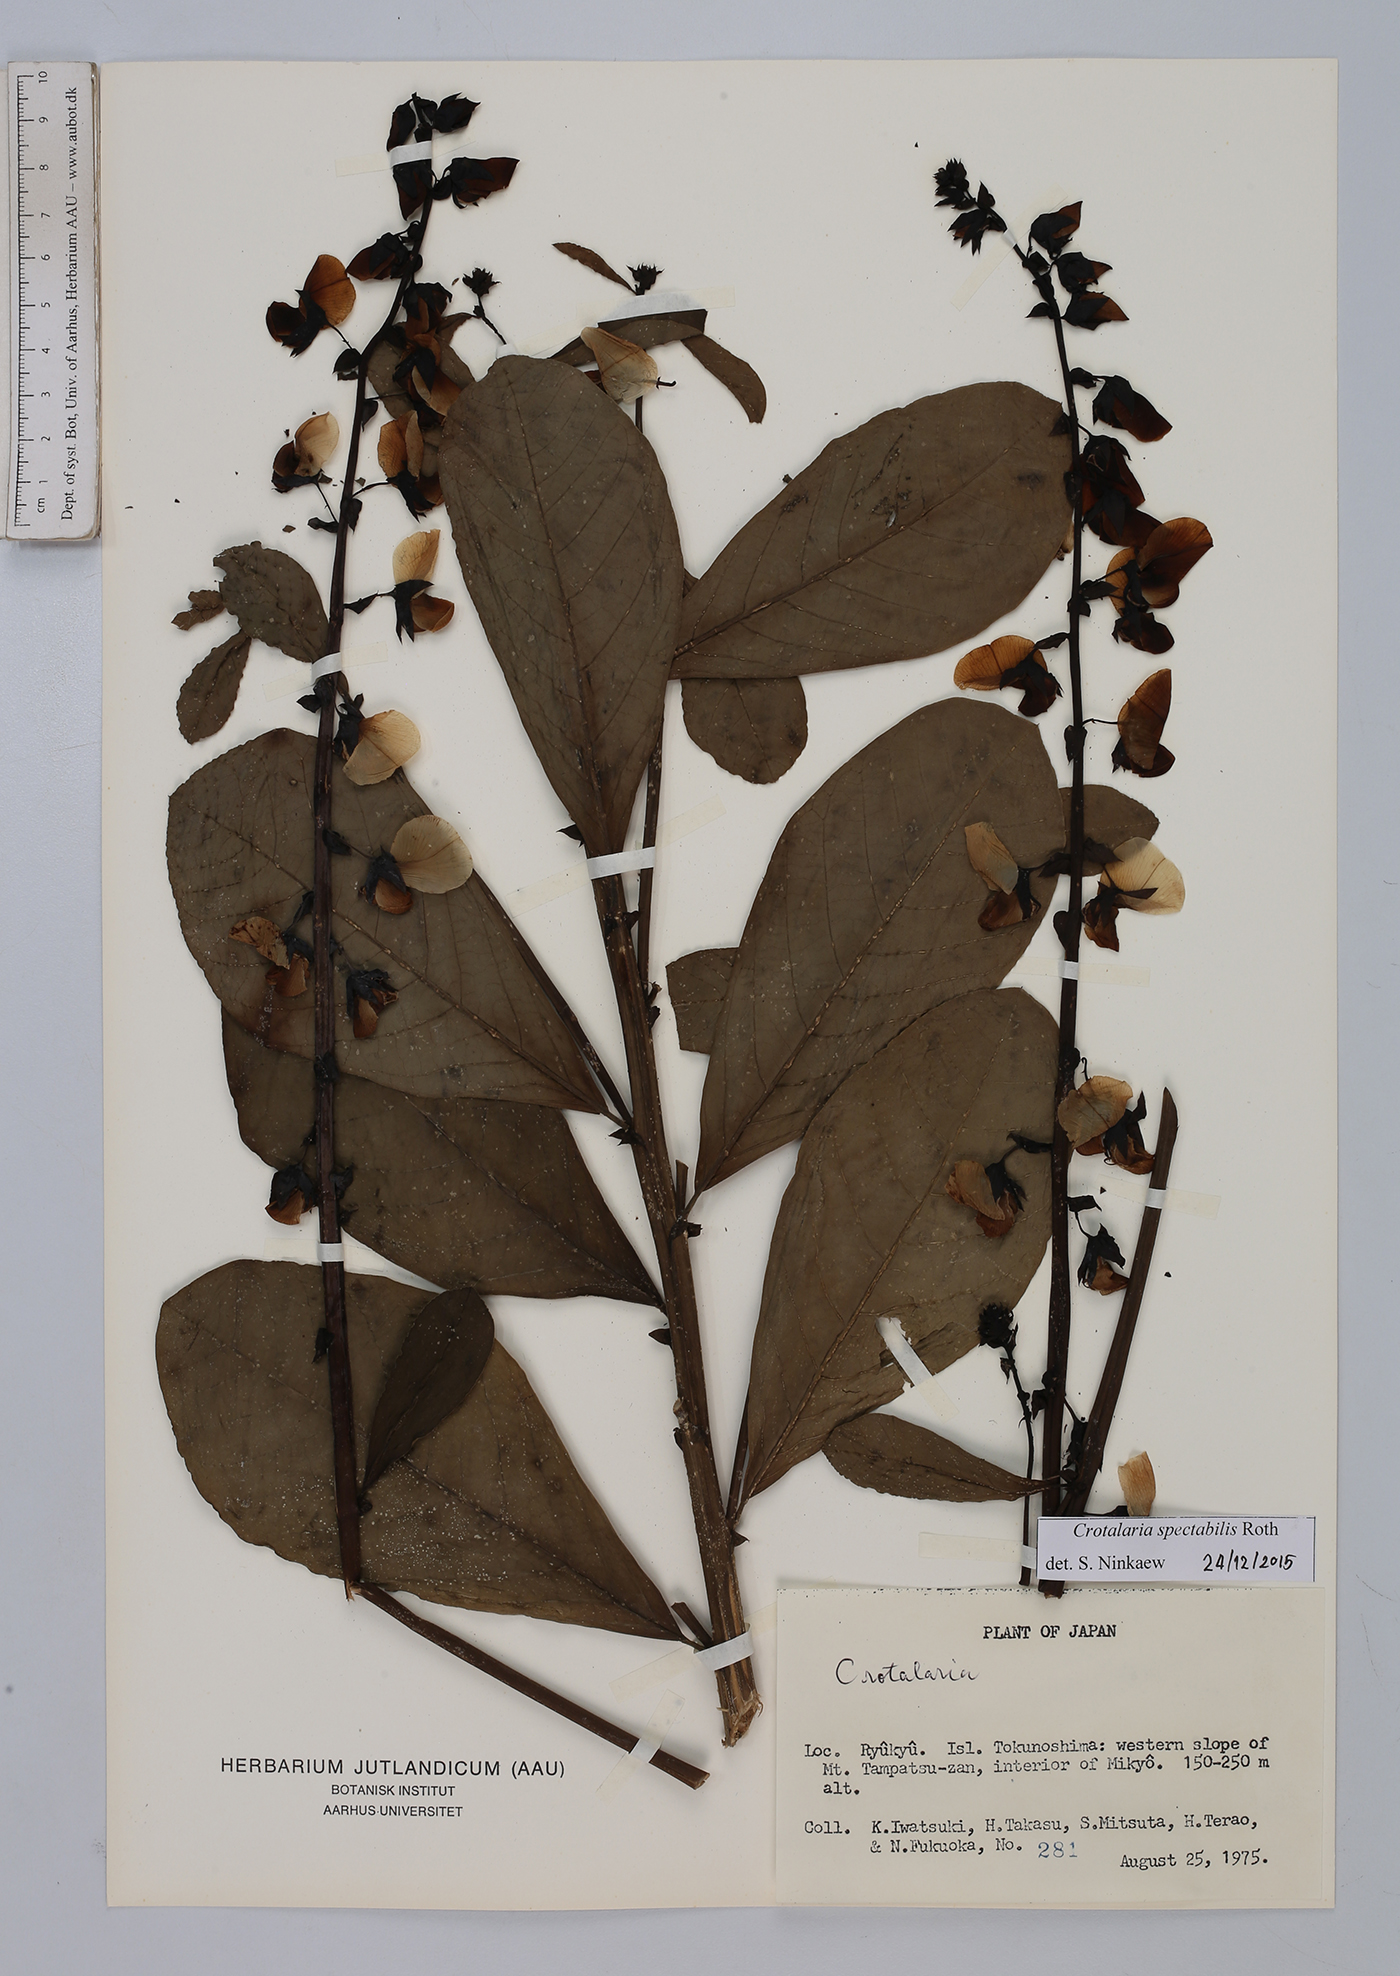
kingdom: Plantae
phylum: Tracheophyta
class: Magnoliopsida
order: Fabales
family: Fabaceae
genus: Crotalaria
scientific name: Crotalaria spectabilis
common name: Showy rattlebox
